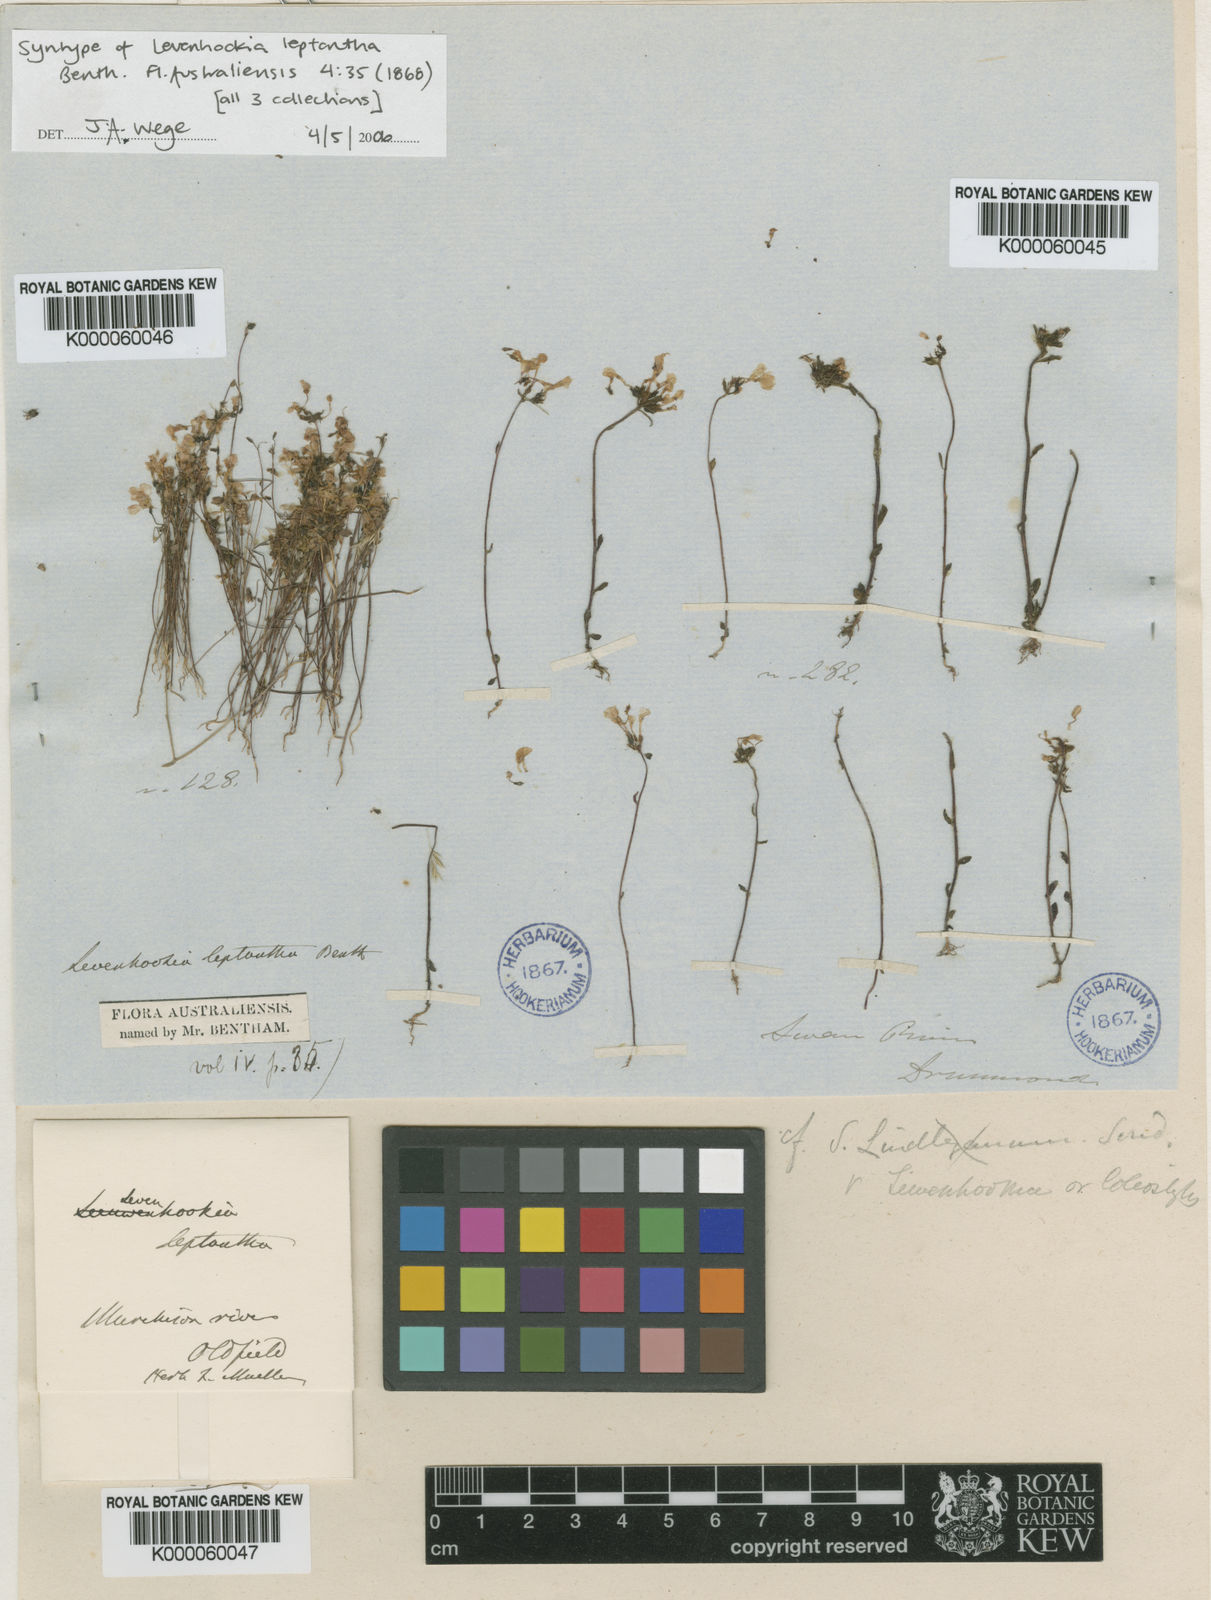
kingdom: Plantae
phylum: Tracheophyta
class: Magnoliopsida
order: Asterales
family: Stylidiaceae
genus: Levenhookia
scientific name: Levenhookia leptantha
